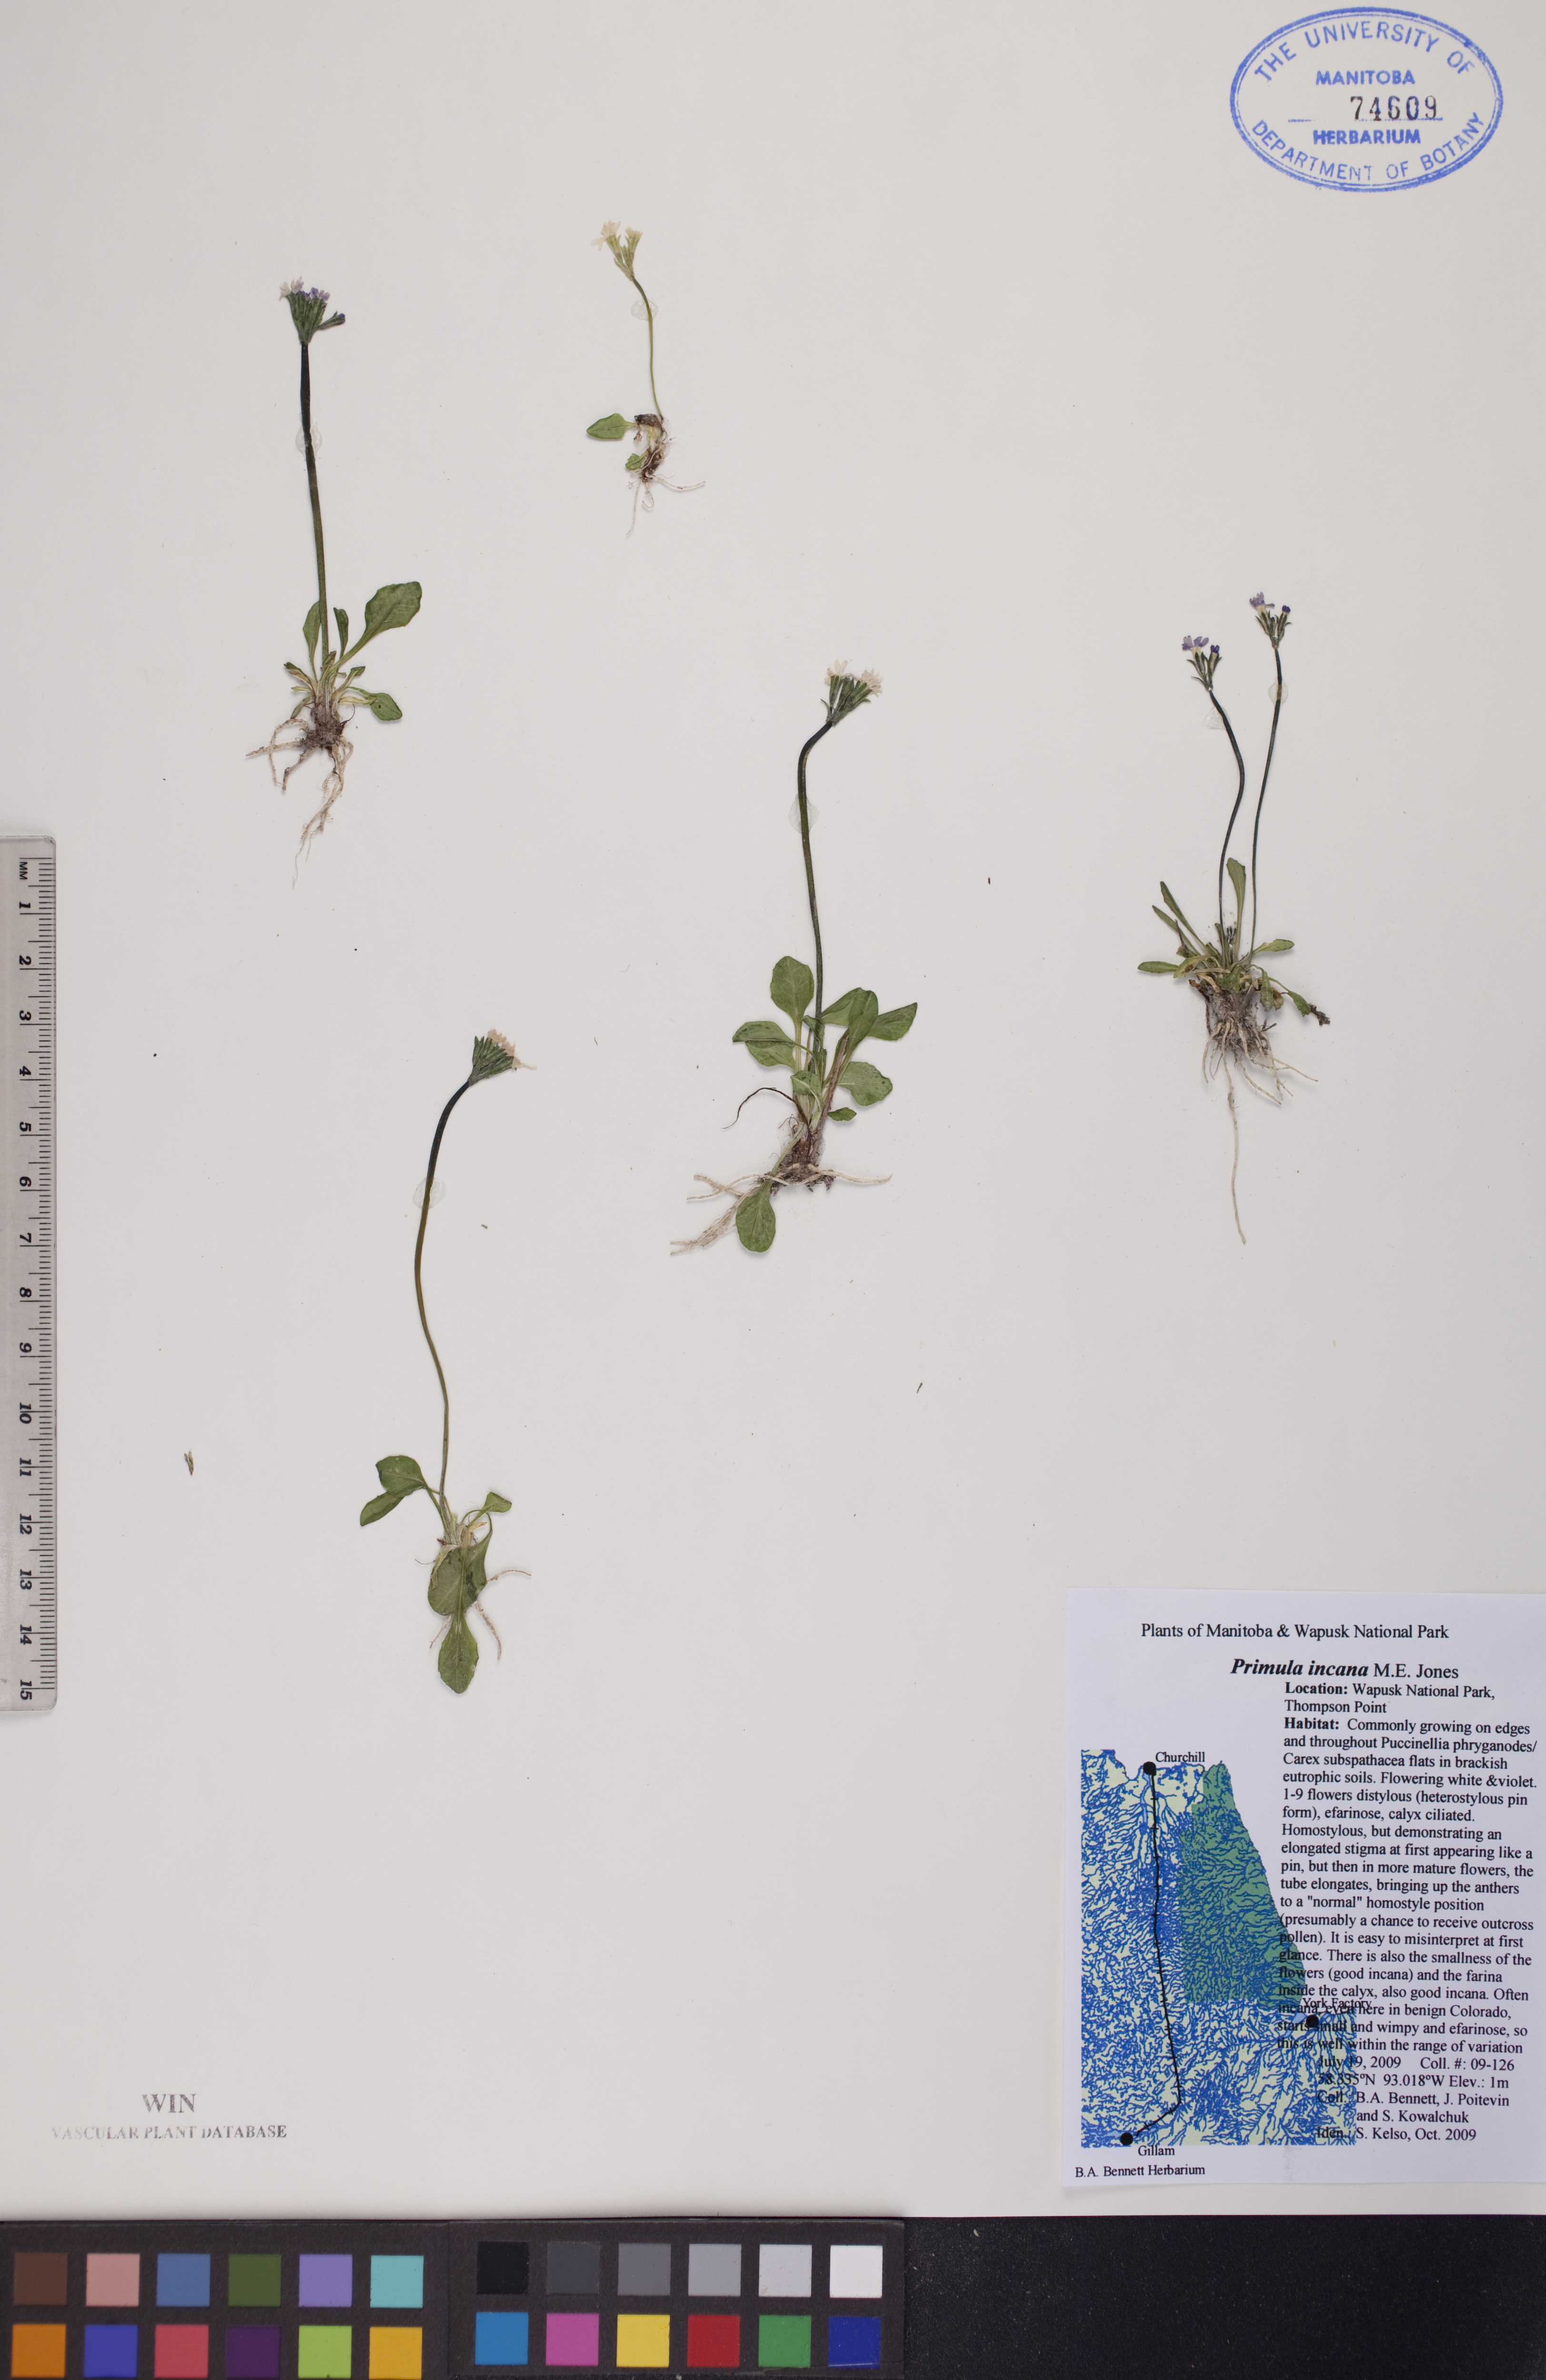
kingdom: Plantae
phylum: Tracheophyta
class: Magnoliopsida
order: Ericales
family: Primulaceae
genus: Primula
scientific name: Primula incana
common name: Hoary primrose
